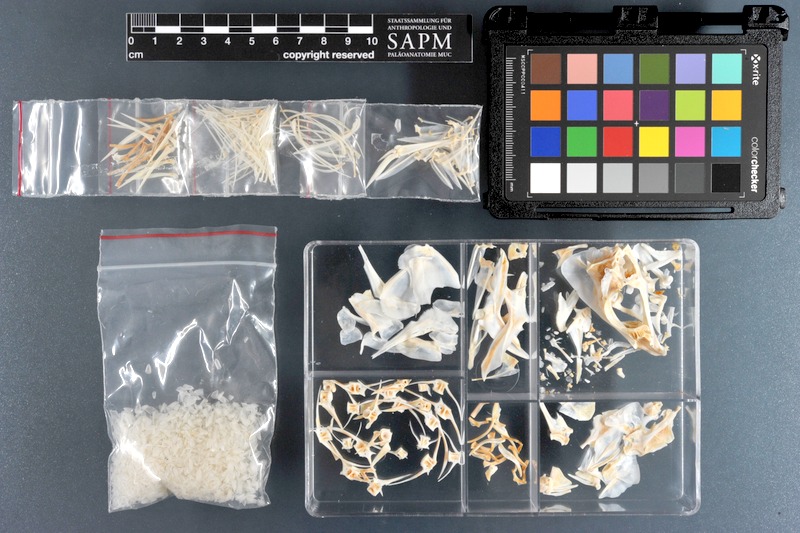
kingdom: Animalia
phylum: Chordata
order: Perciformes
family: Lutjanidae
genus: Lutjanus
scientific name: Lutjanus sebae
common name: Emperor red snapper
